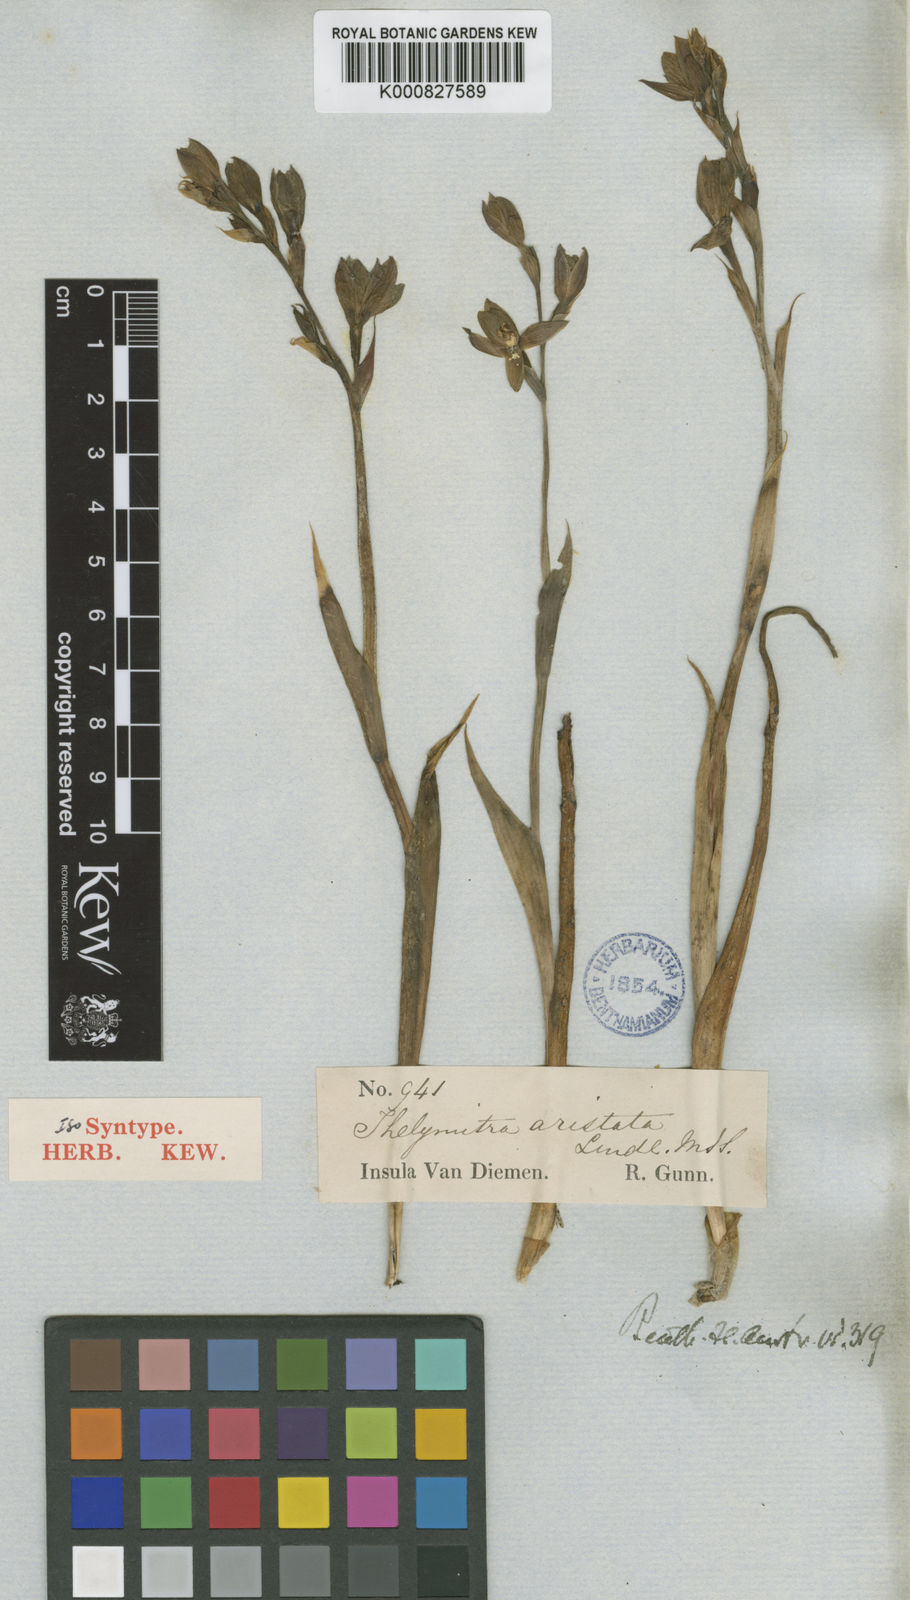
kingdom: Plantae
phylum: Tracheophyta
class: Liliopsida
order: Asparagales
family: Orchidaceae
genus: Thelymitra
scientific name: Thelymitra aristata
